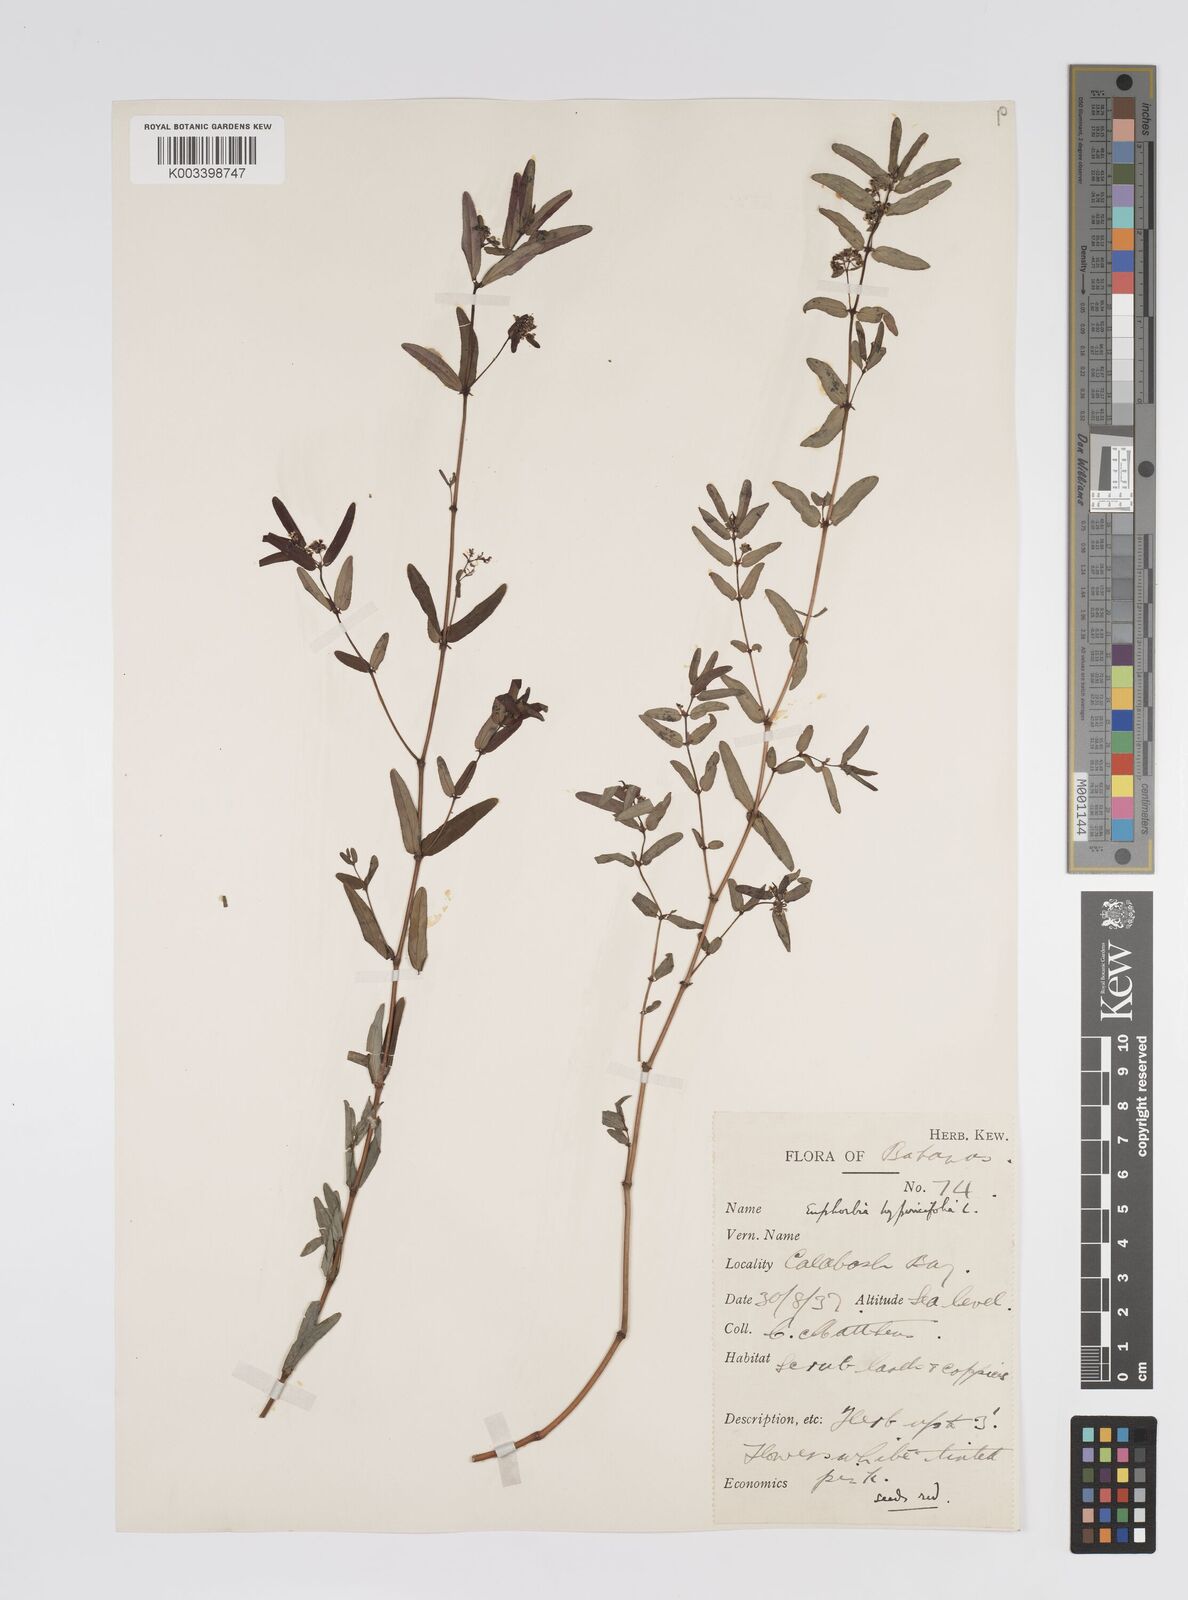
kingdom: Plantae
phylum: Tracheophyta
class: Magnoliopsida
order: Malpighiales
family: Euphorbiaceae
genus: Euphorbia
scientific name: Euphorbia
